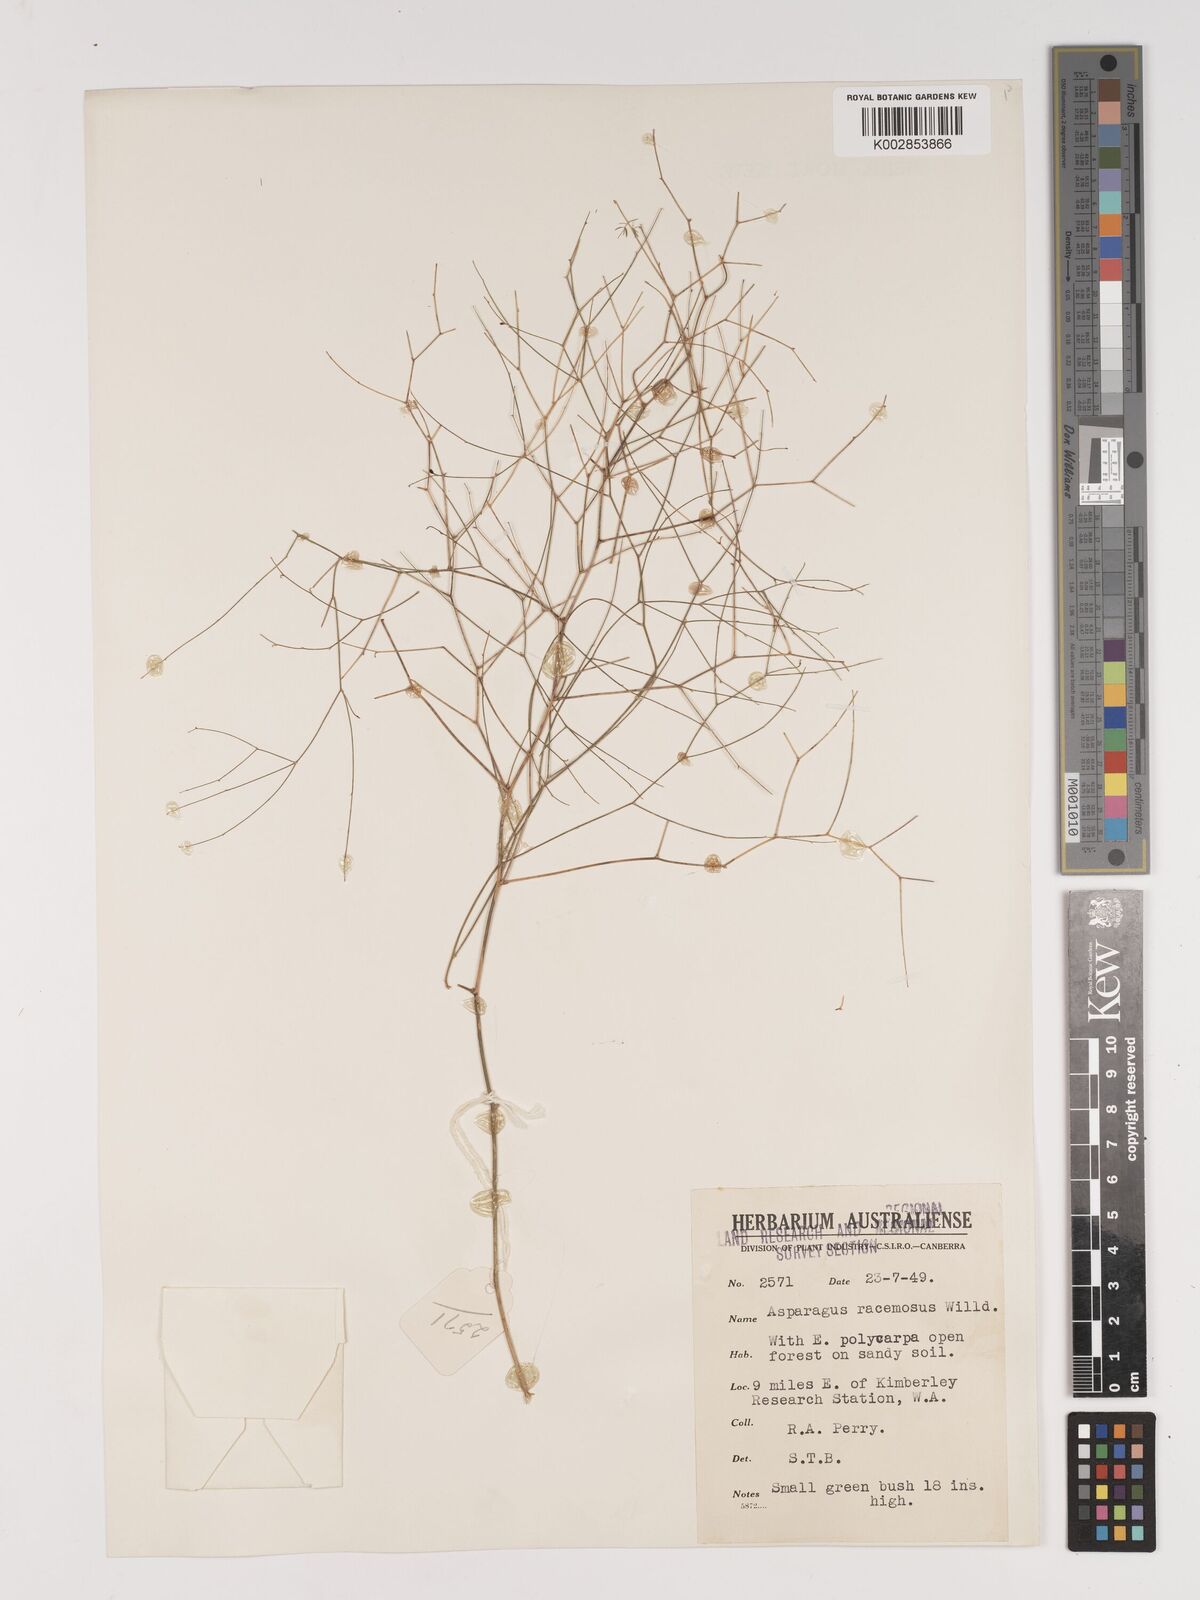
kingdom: Plantae
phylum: Tracheophyta
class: Liliopsida
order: Asparagales
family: Asparagaceae
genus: Asparagus
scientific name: Asparagus racemosus
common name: Asparagus-fern
